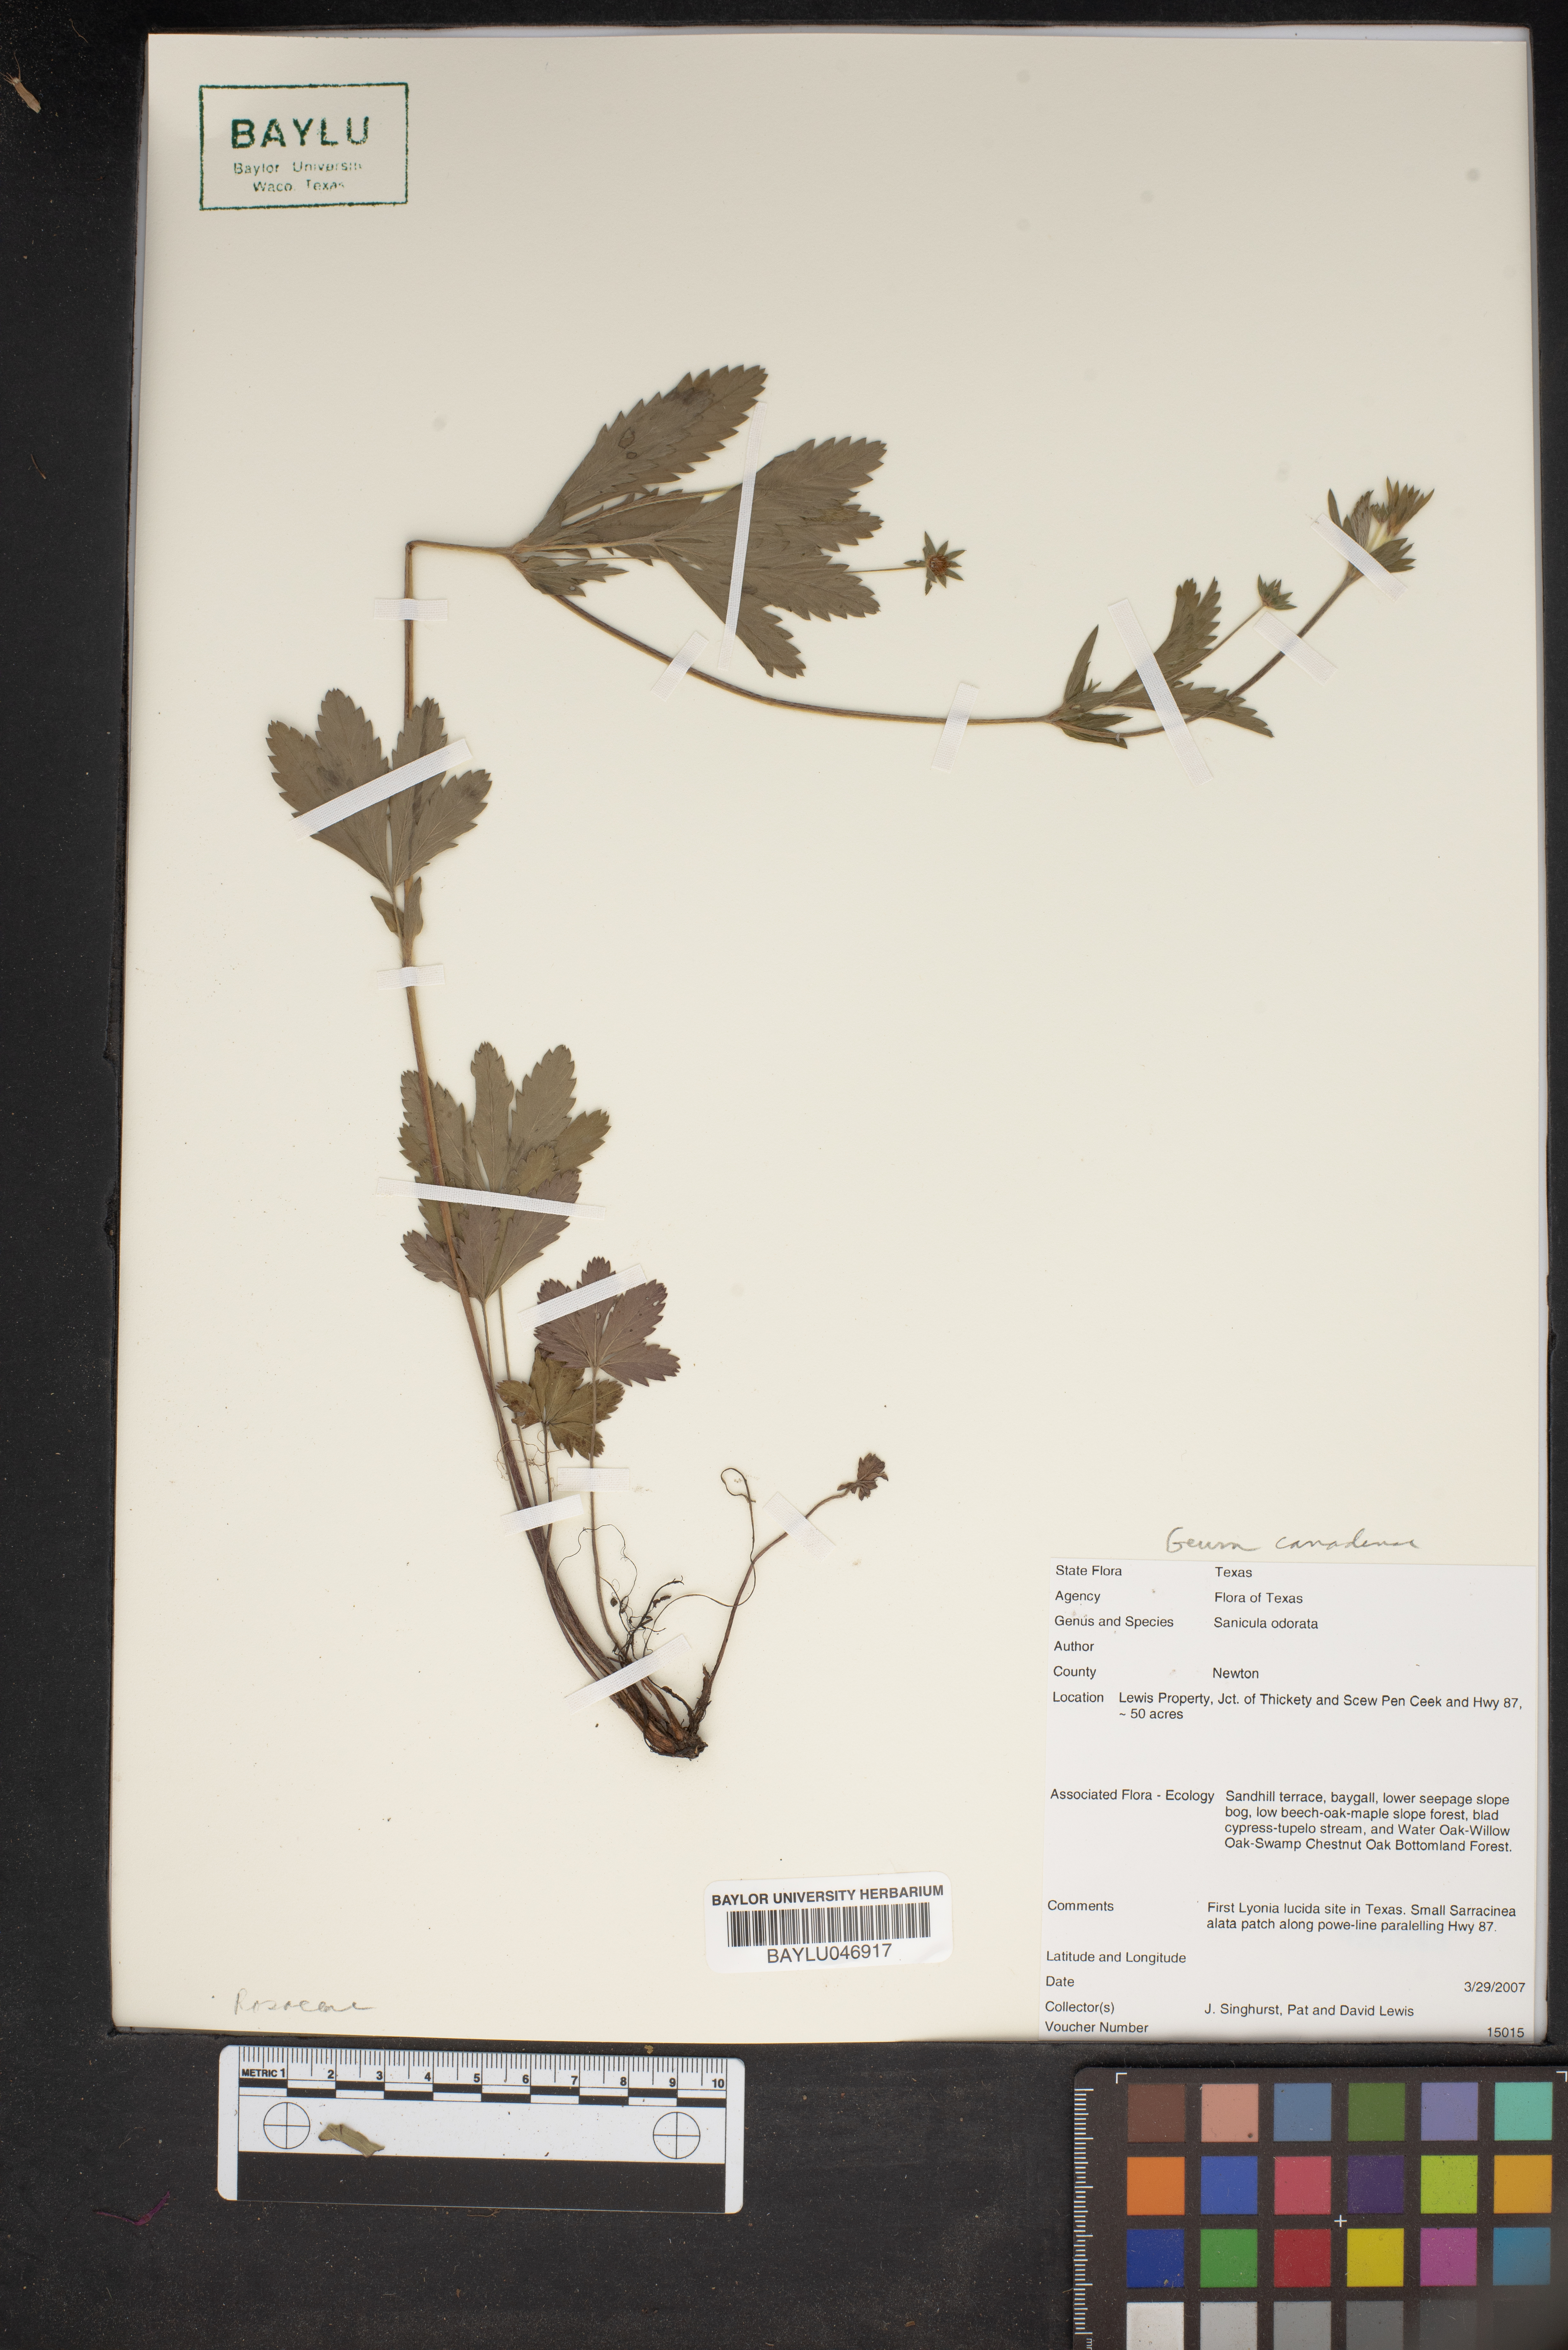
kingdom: Plantae
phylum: Tracheophyta
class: Magnoliopsida
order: Apiales
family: Apiaceae
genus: Sanicula
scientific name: Sanicula odorata
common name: Cluster sanicle
